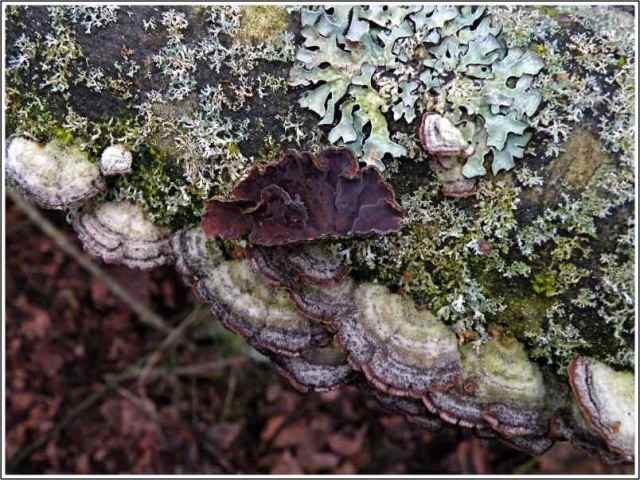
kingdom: Fungi
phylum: Basidiomycota
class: Agaricomycetes
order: Agaricales
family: Cyphellaceae
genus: Chondrostereum
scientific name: Chondrostereum purpureum
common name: purpurlædersvamp
